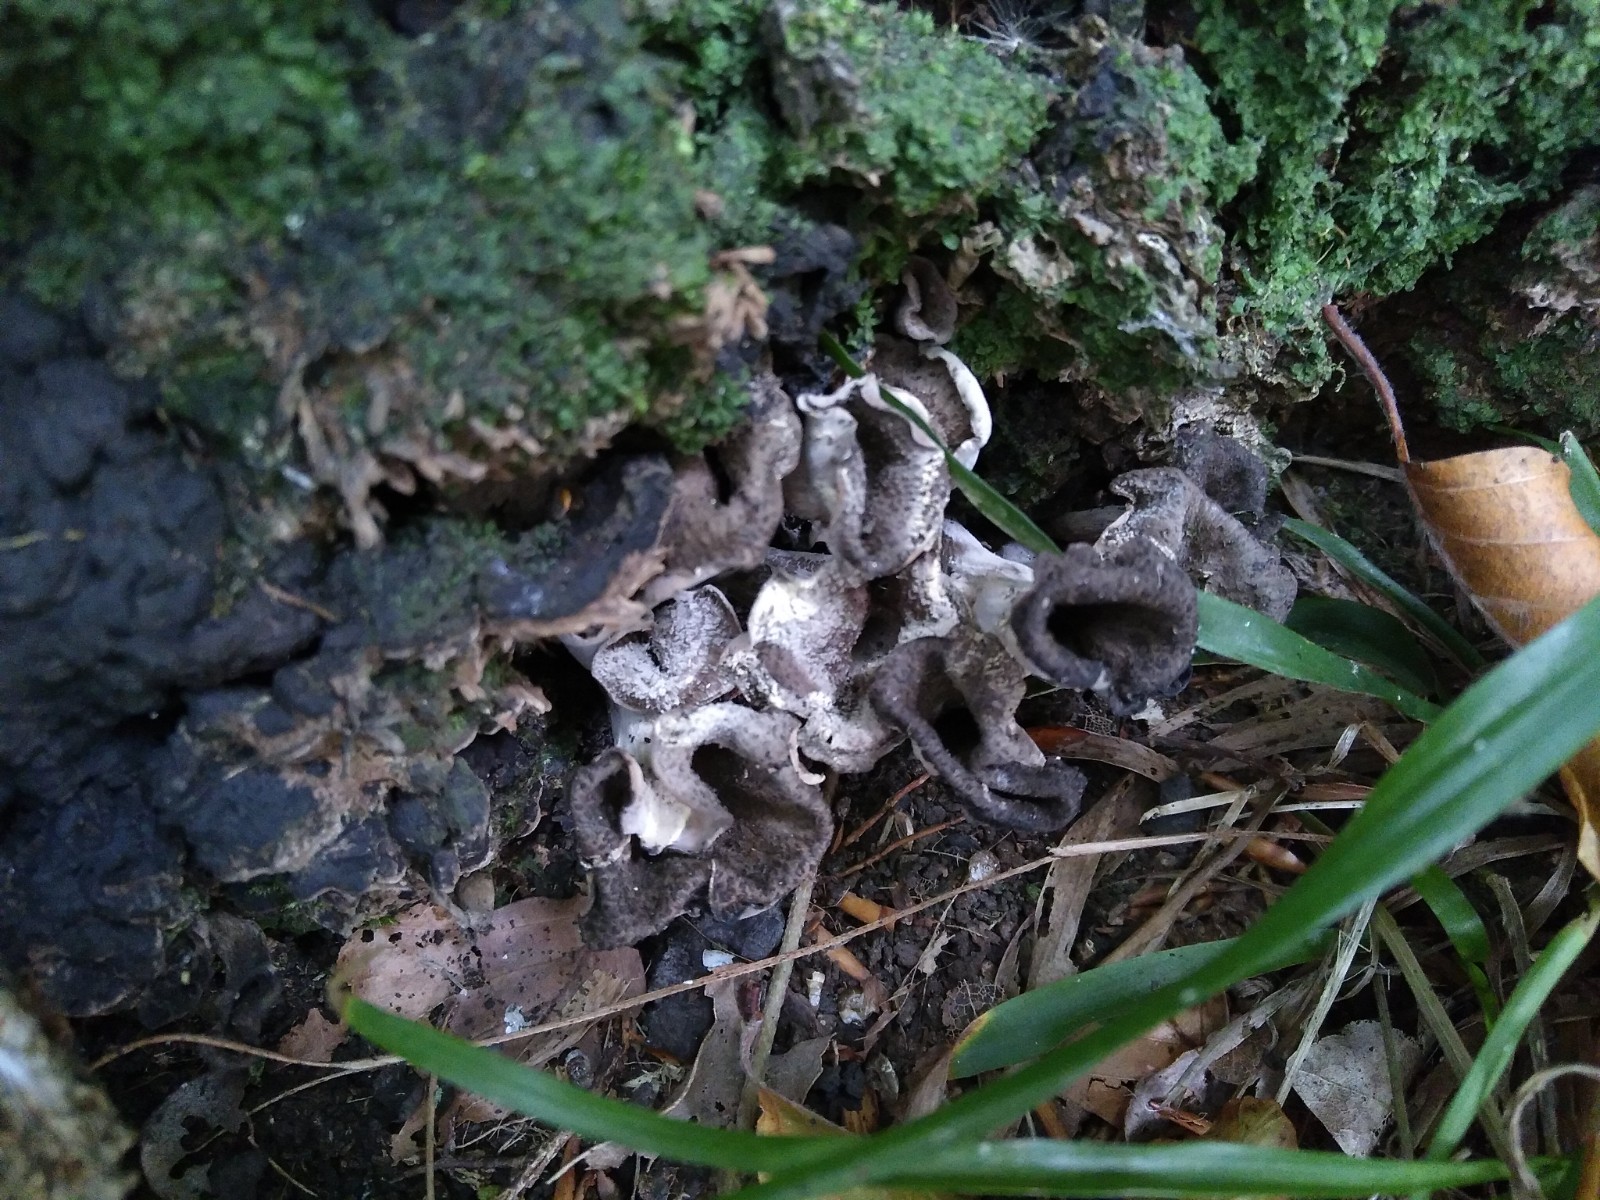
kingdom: Fungi
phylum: Basidiomycota
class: Agaricomycetes
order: Cantharellales
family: Hydnaceae
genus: Craterellus
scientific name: Craterellus cornucopioides
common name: trompetsvamp
